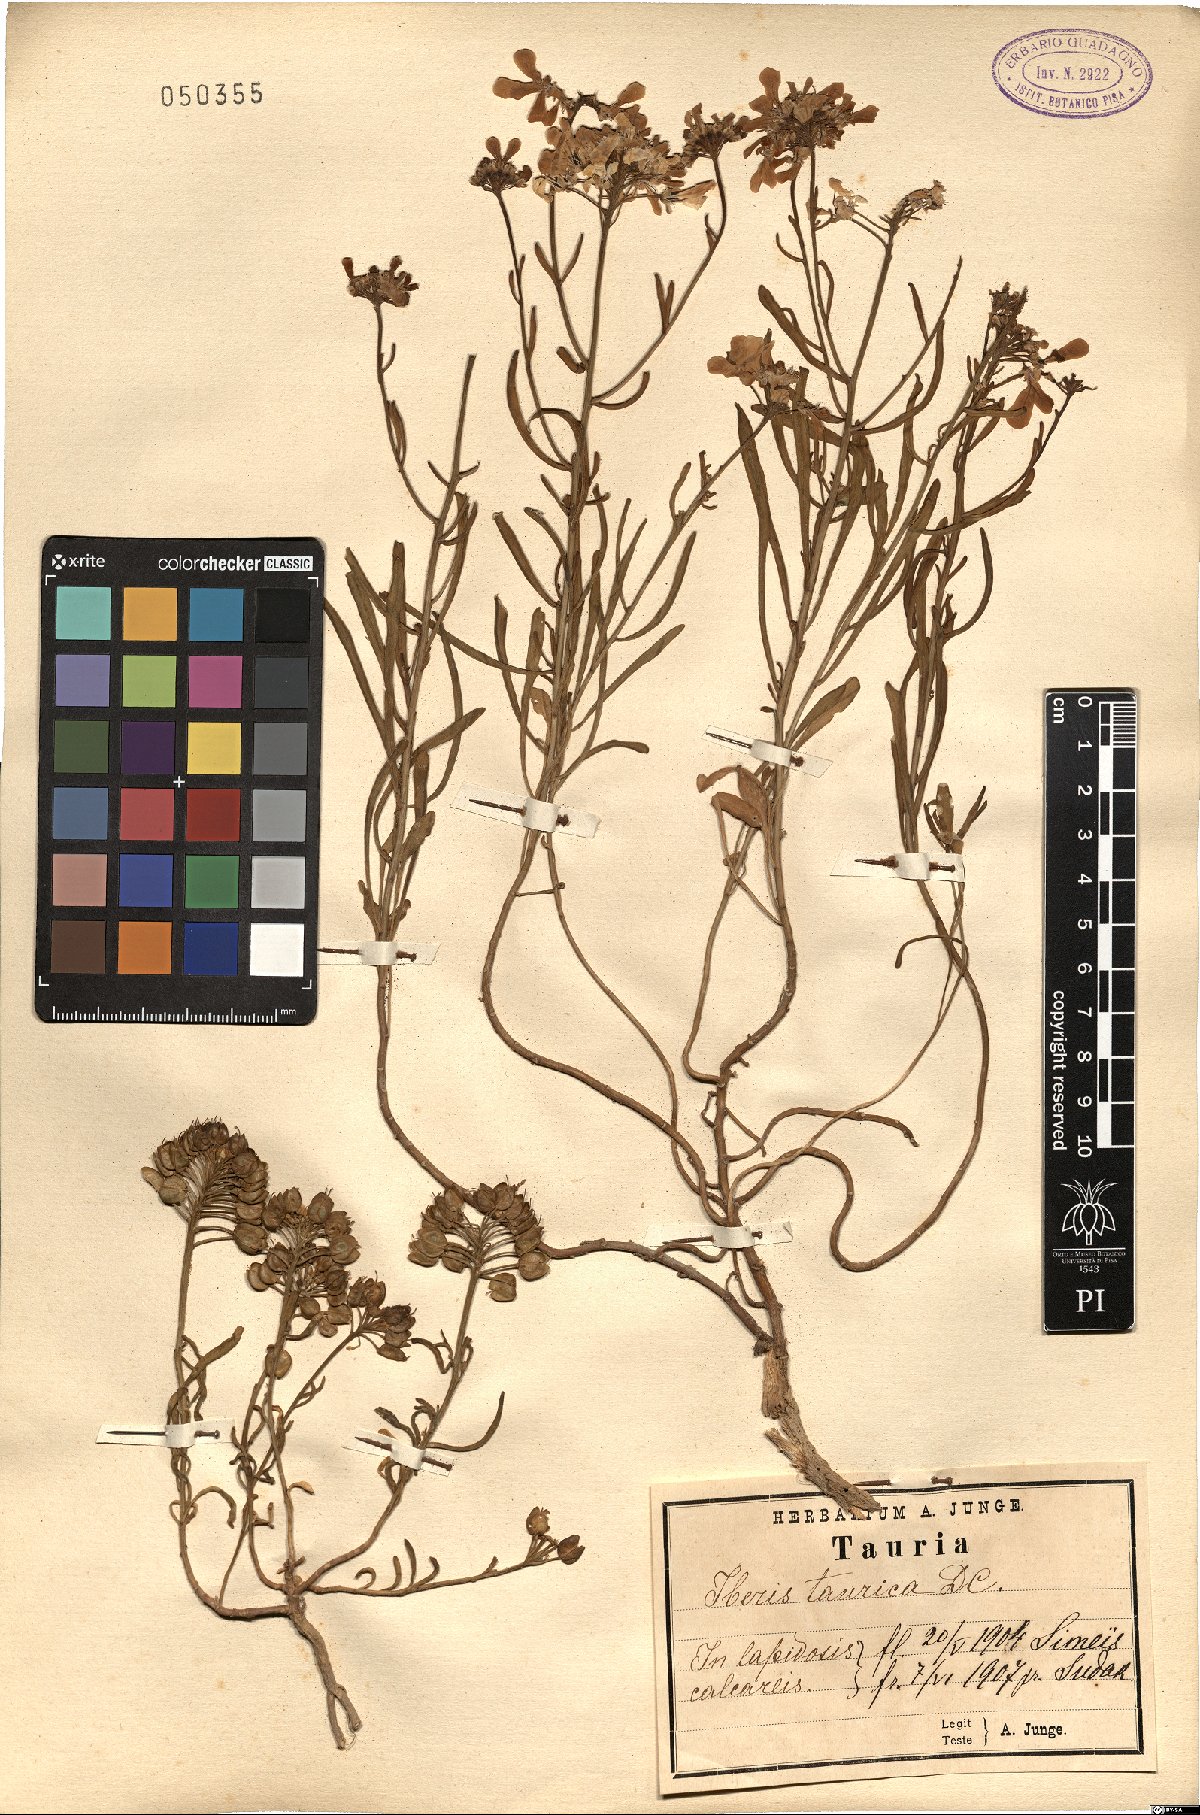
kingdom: Plantae
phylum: Tracheophyta
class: Magnoliopsida
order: Brassicales
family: Brassicaceae
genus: Iberis
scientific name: Iberis simplex
